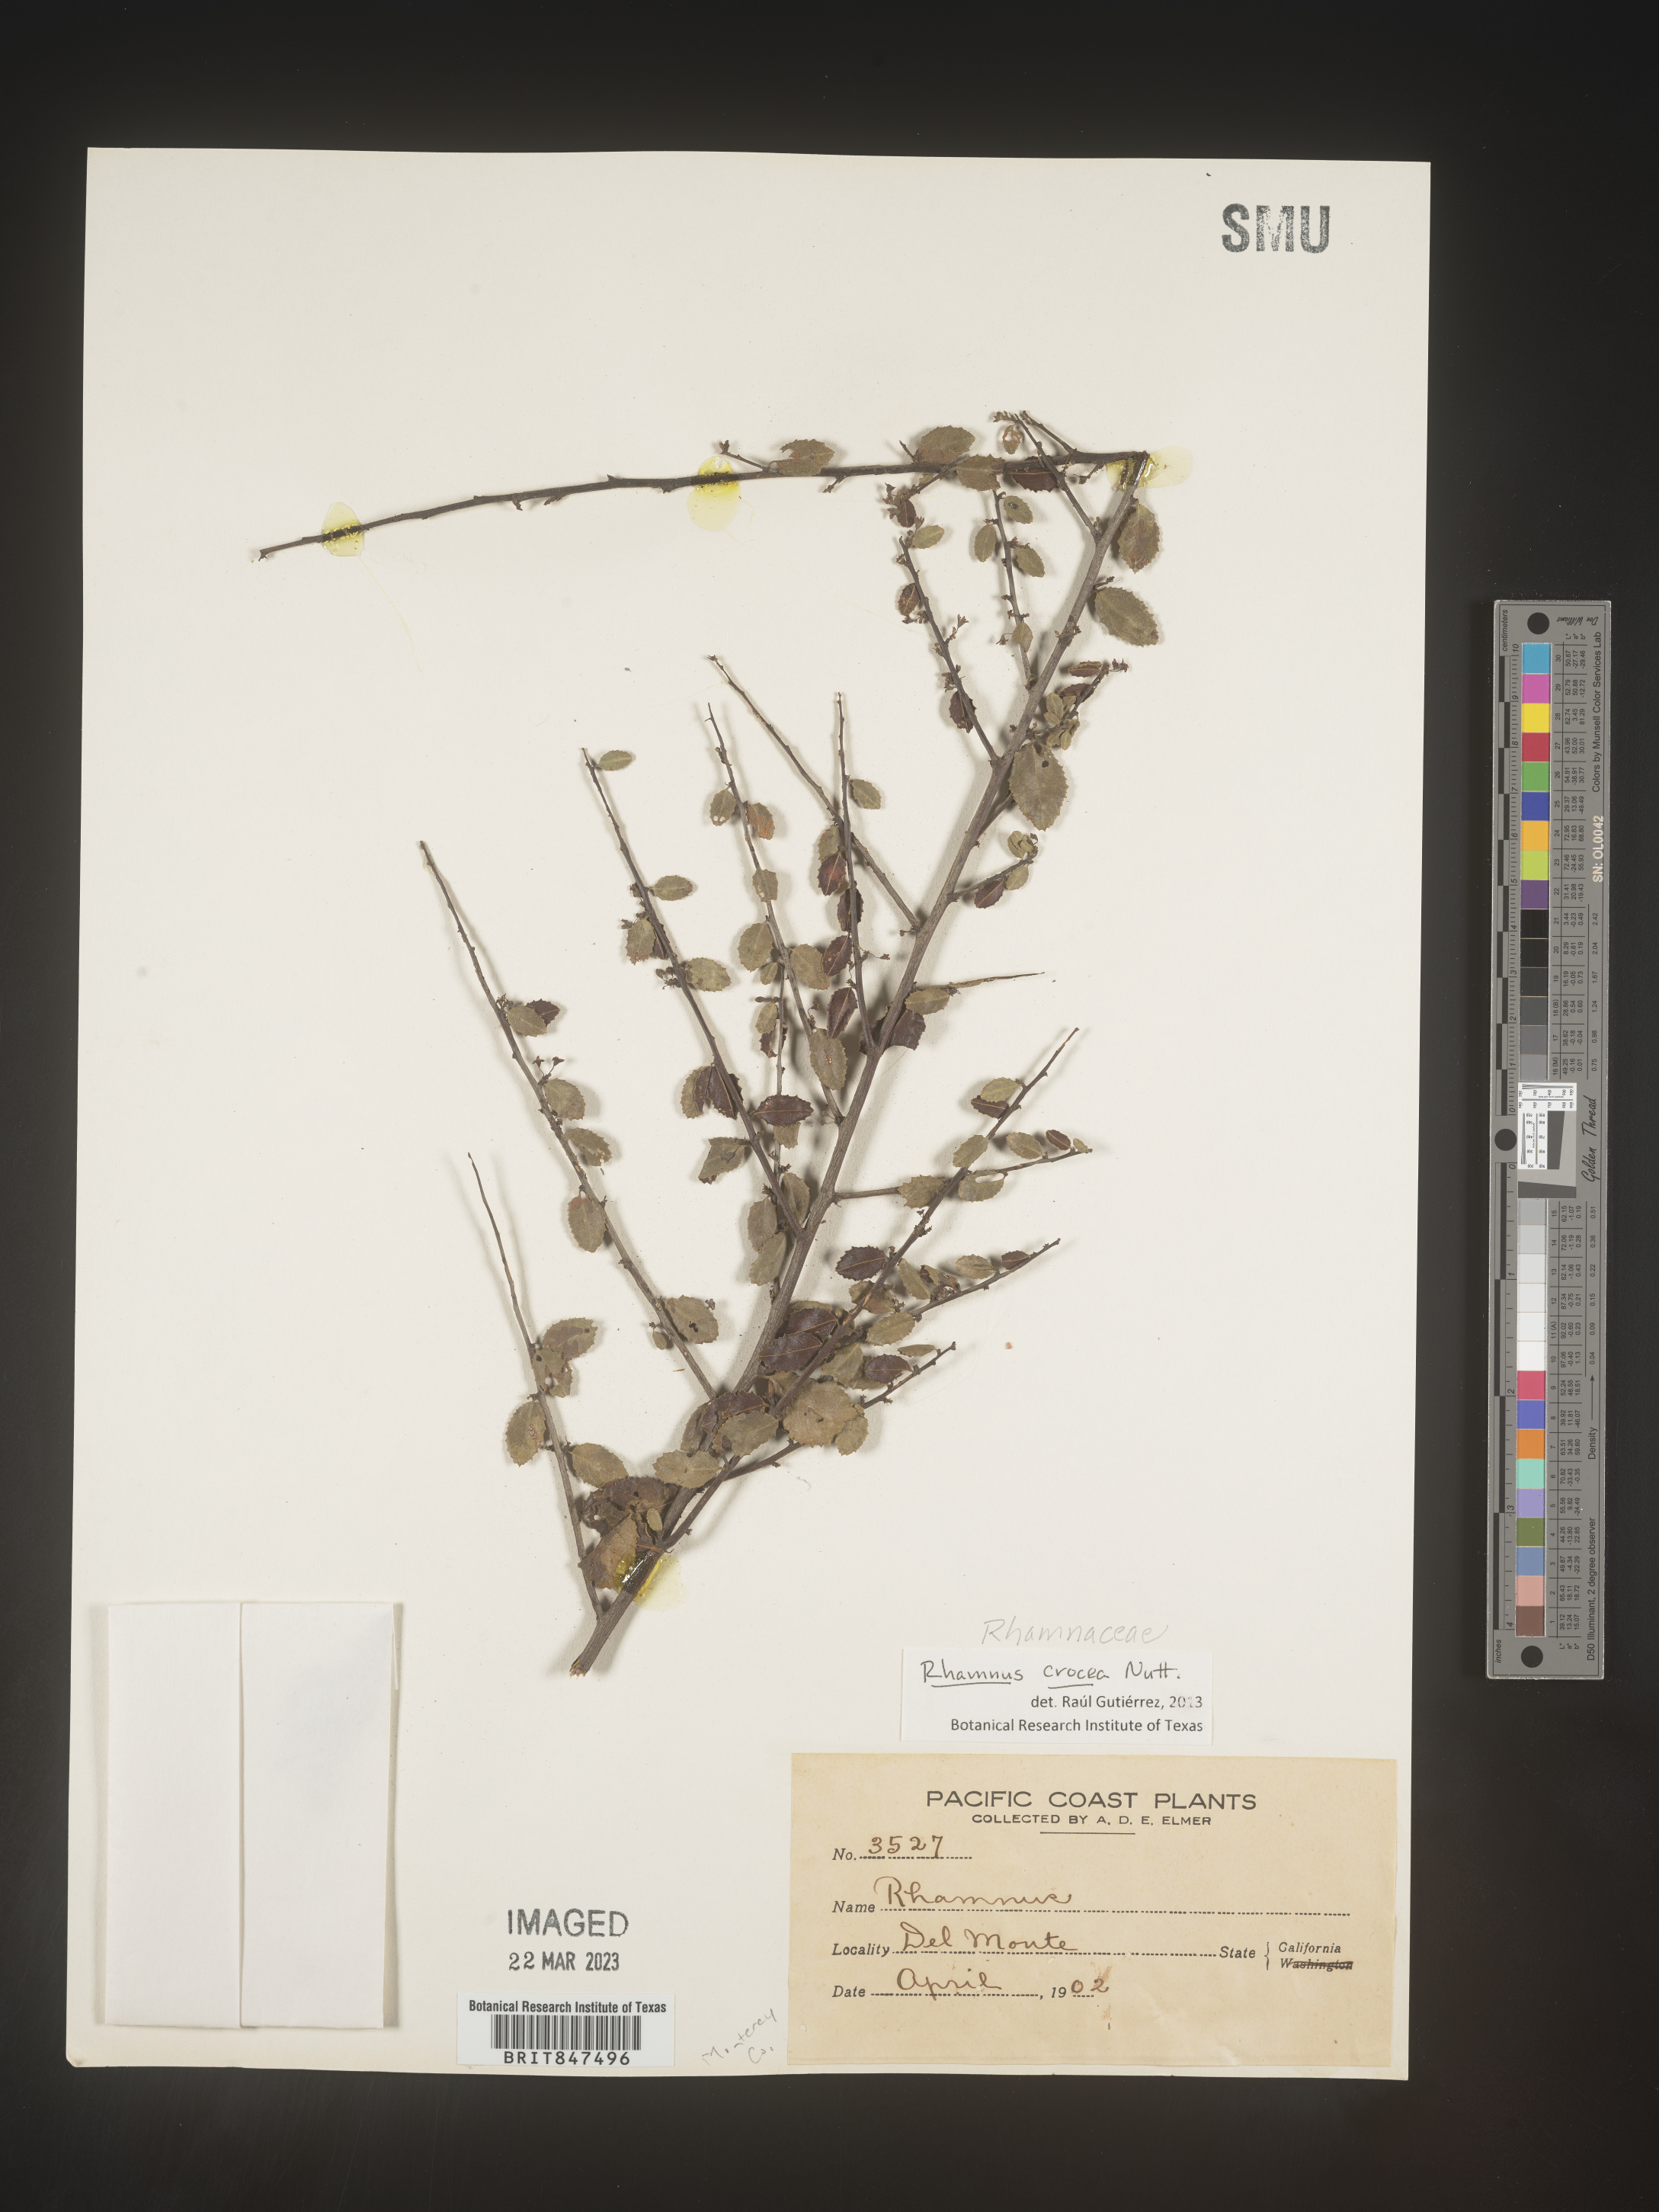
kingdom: Plantae
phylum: Tracheophyta
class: Magnoliopsida
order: Rosales
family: Rhamnaceae
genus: Endotropis
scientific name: Endotropis crocea
